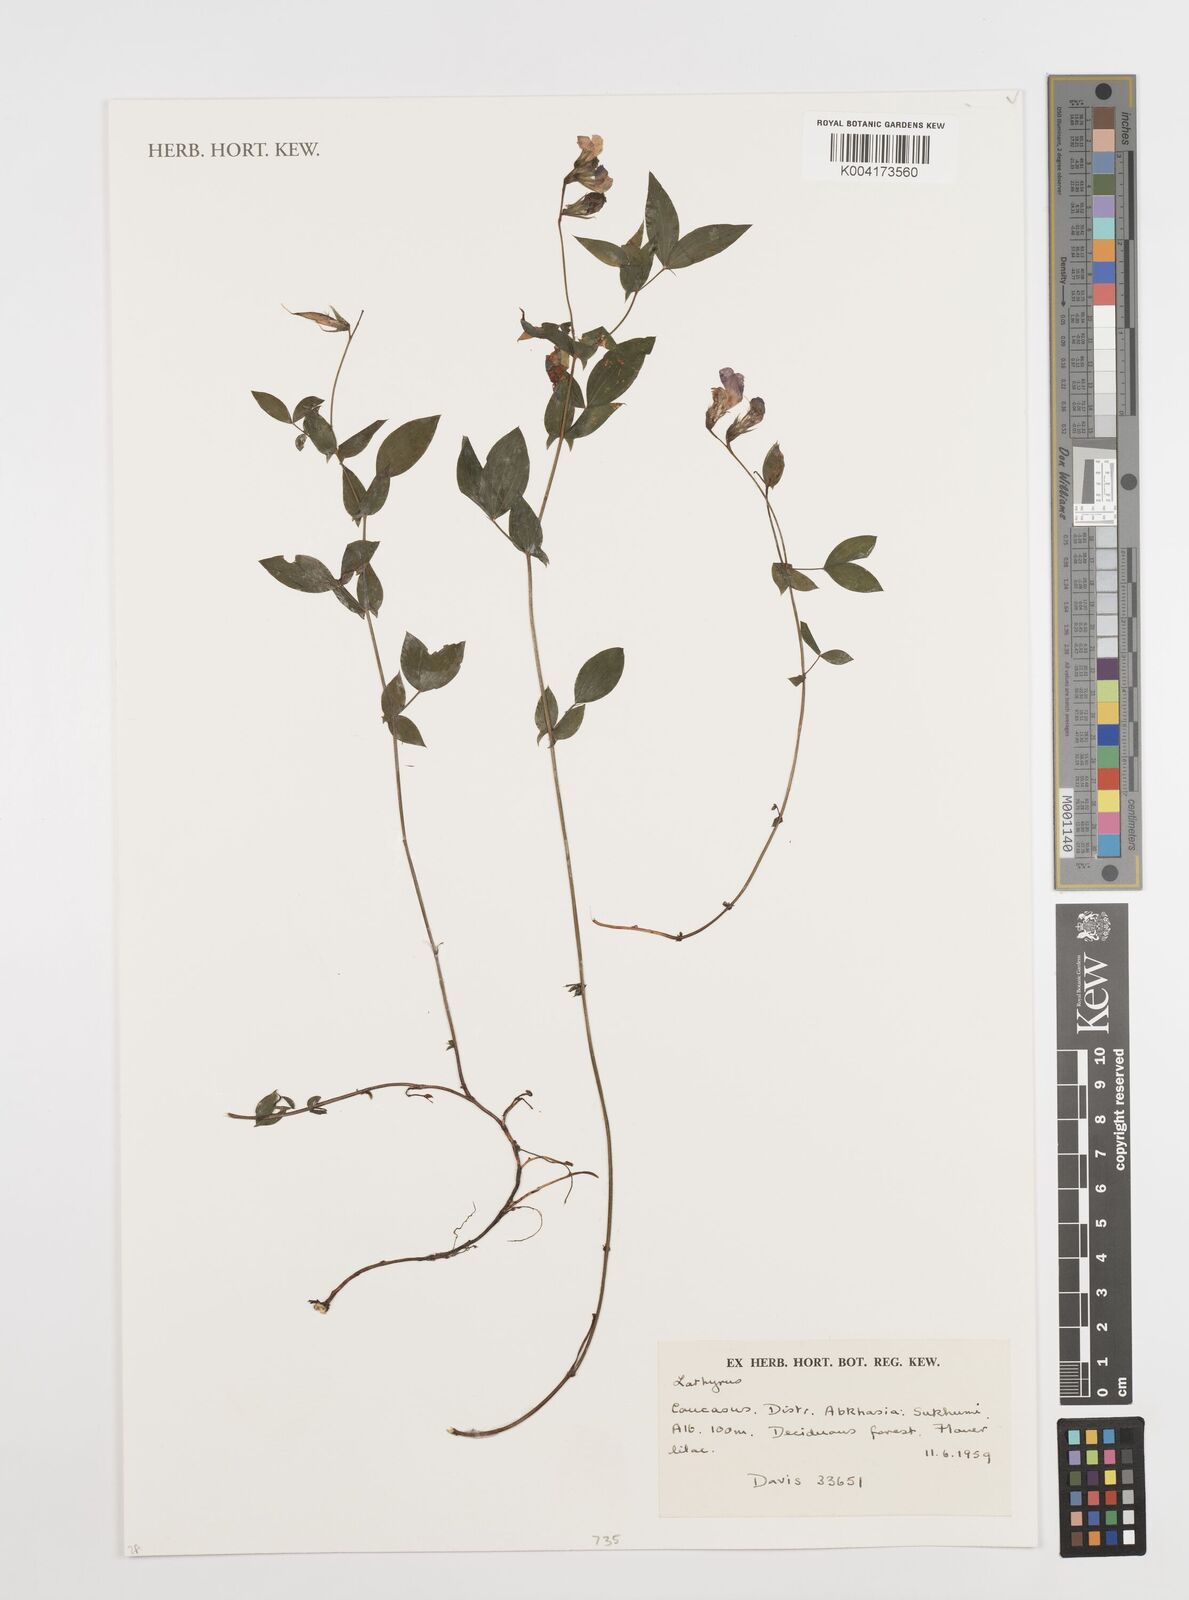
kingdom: Plantae
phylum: Tracheophyta
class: Magnoliopsida
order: Fabales
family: Fabaceae
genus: Lathyrus
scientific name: Lathyrus
